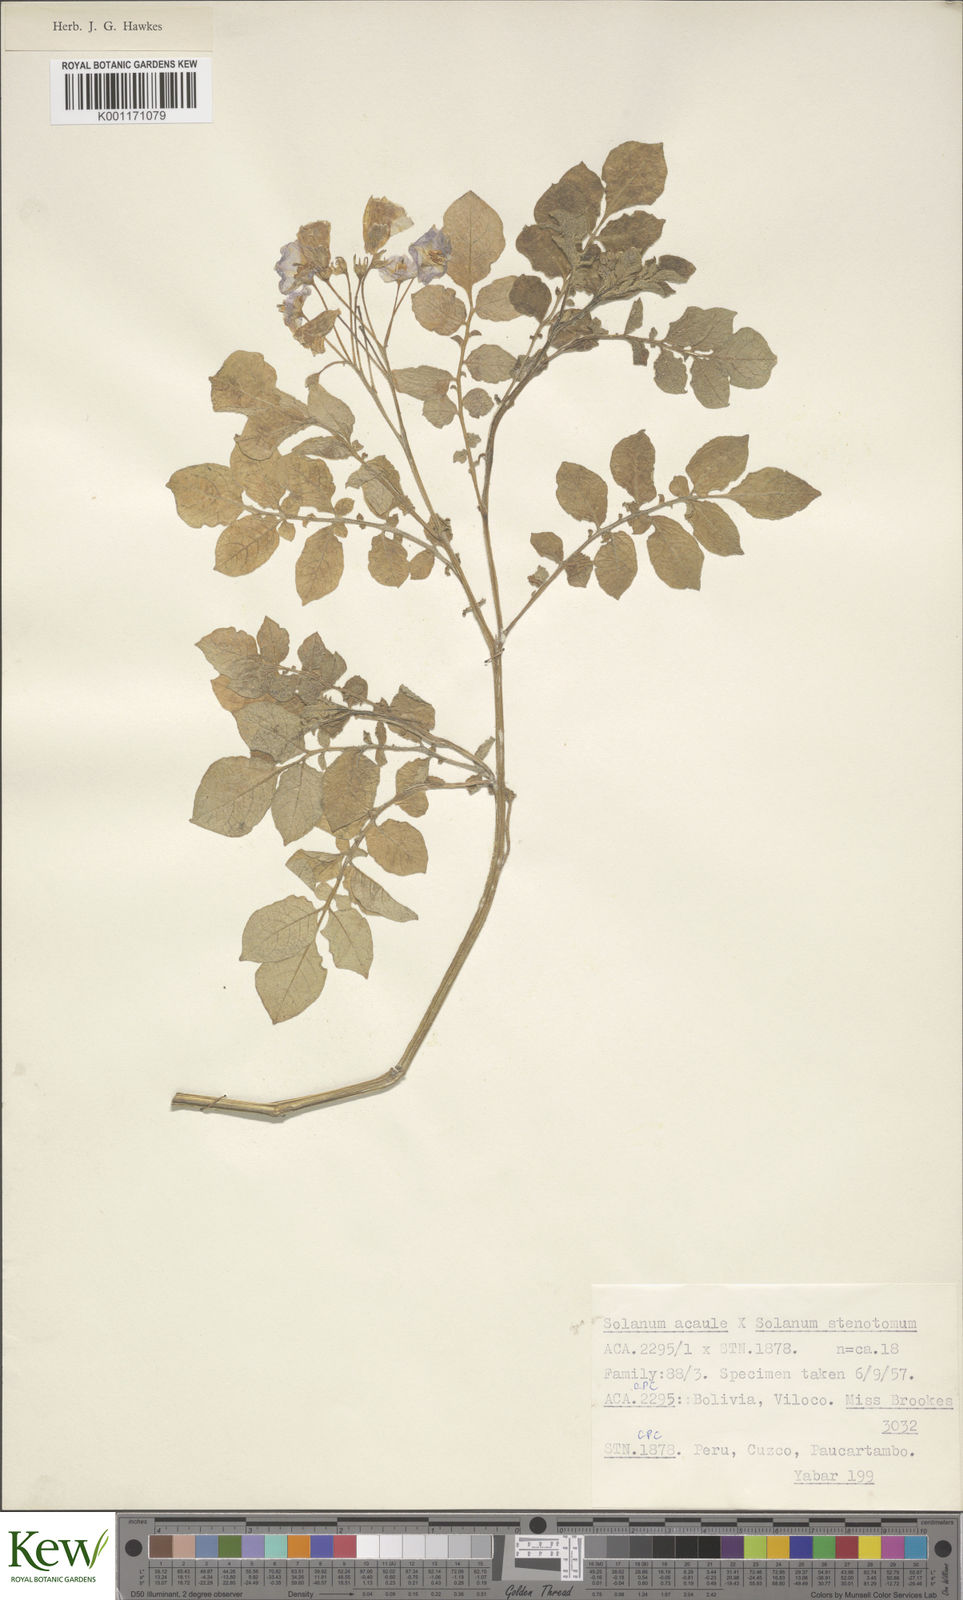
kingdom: Plantae
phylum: Tracheophyta
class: Magnoliopsida
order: Solanales
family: Solanaceae
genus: Solanum
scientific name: Solanum acaule
